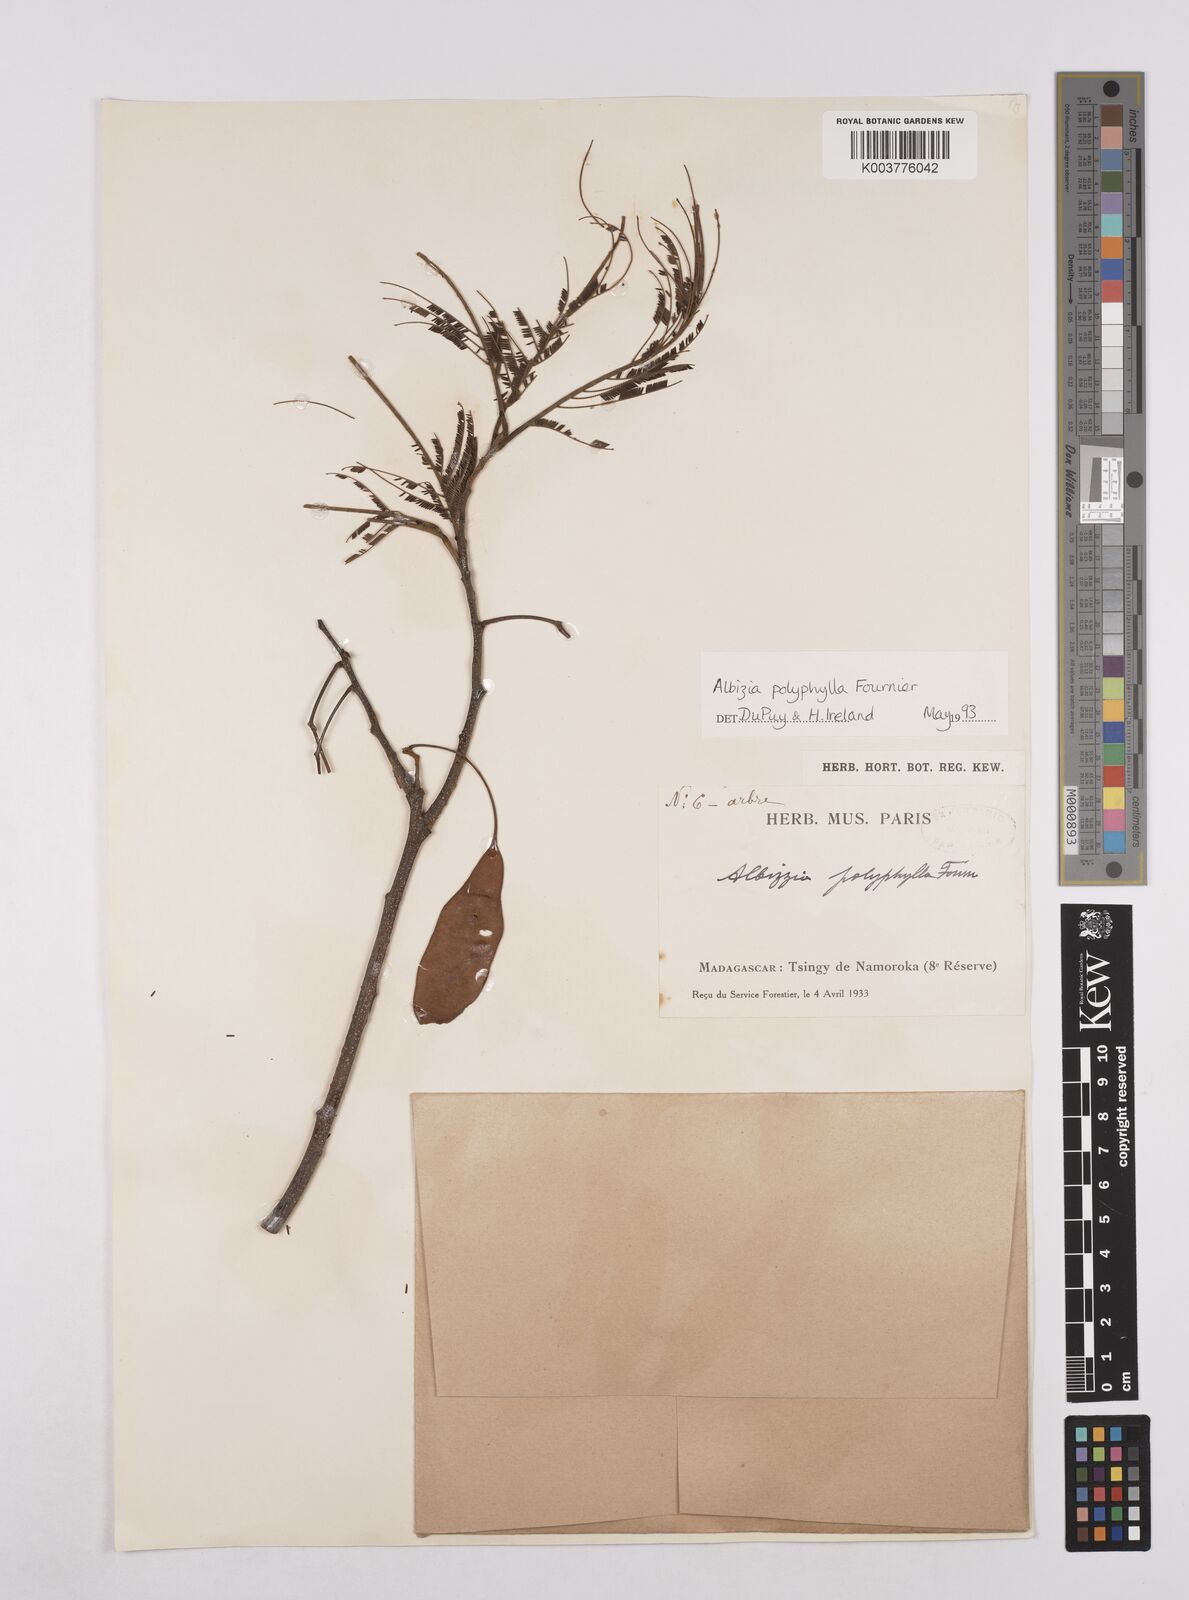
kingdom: Plantae
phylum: Tracheophyta
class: Magnoliopsida
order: Fabales
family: Fabaceae
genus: Albizia
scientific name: Albizia polyphylla
